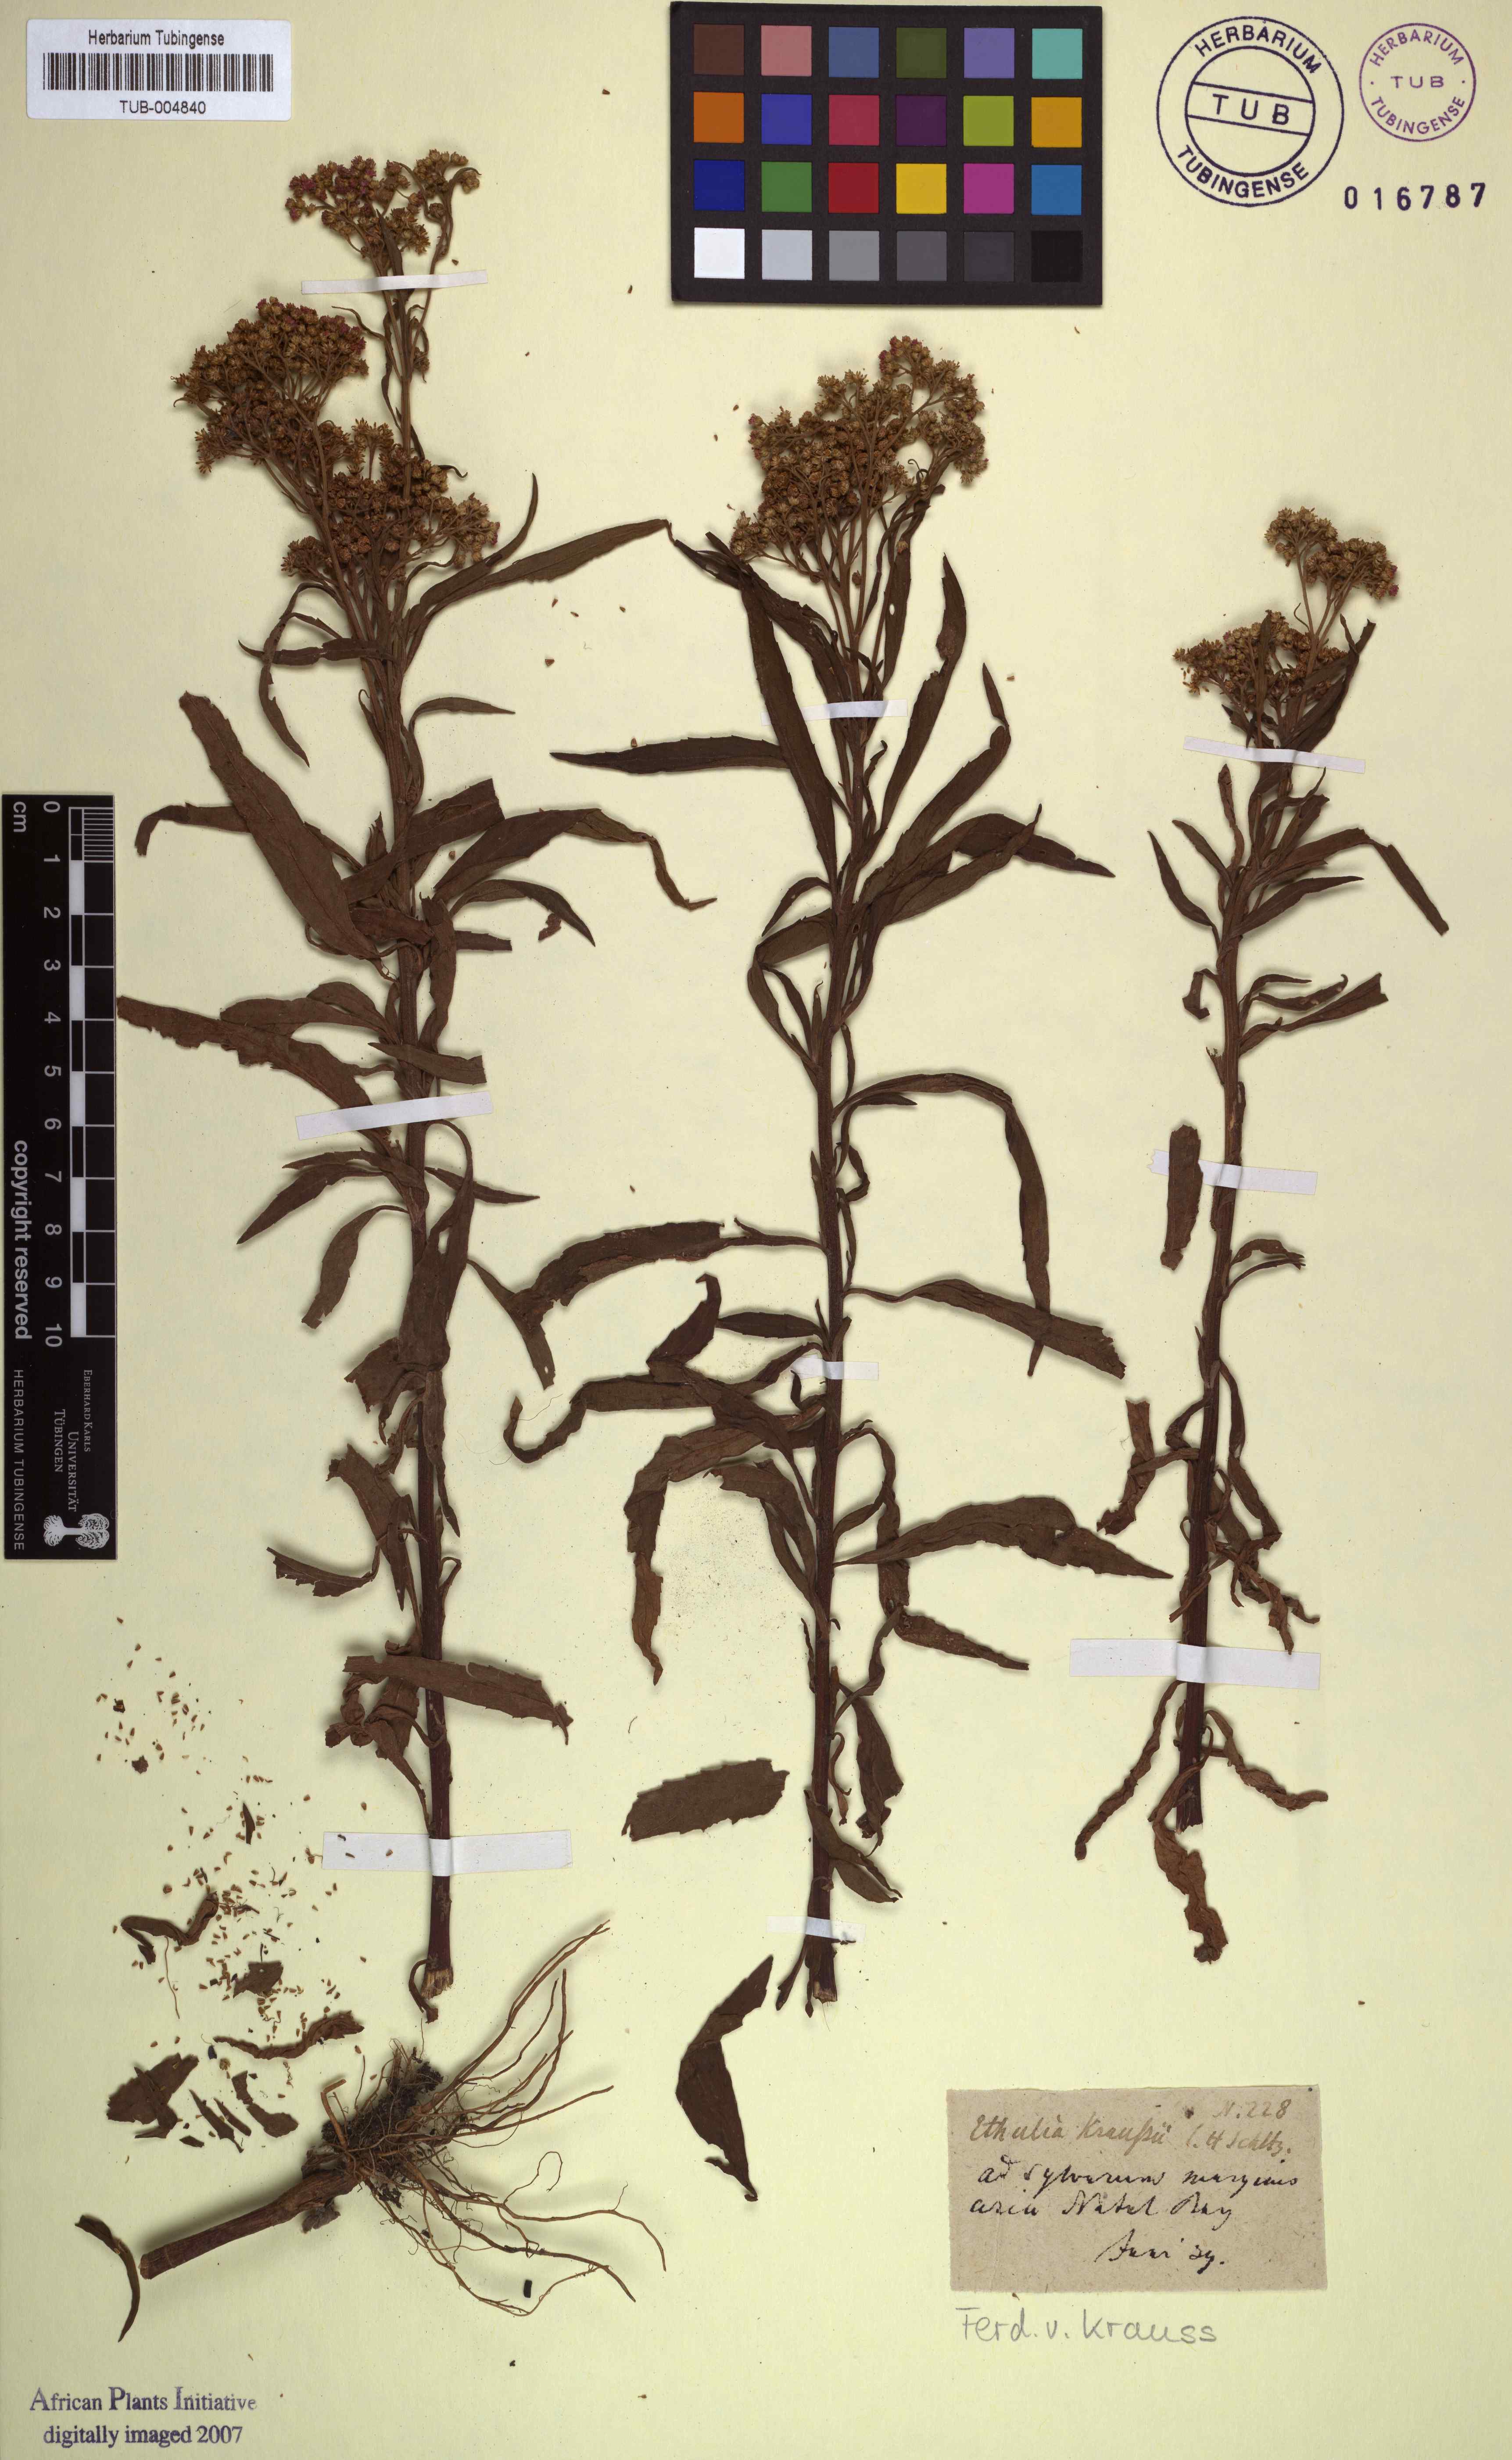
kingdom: Plantae
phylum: Tracheophyta
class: Magnoliopsida
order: Asterales
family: Asteraceae
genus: Ethulia
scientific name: Ethulia conyzoides
